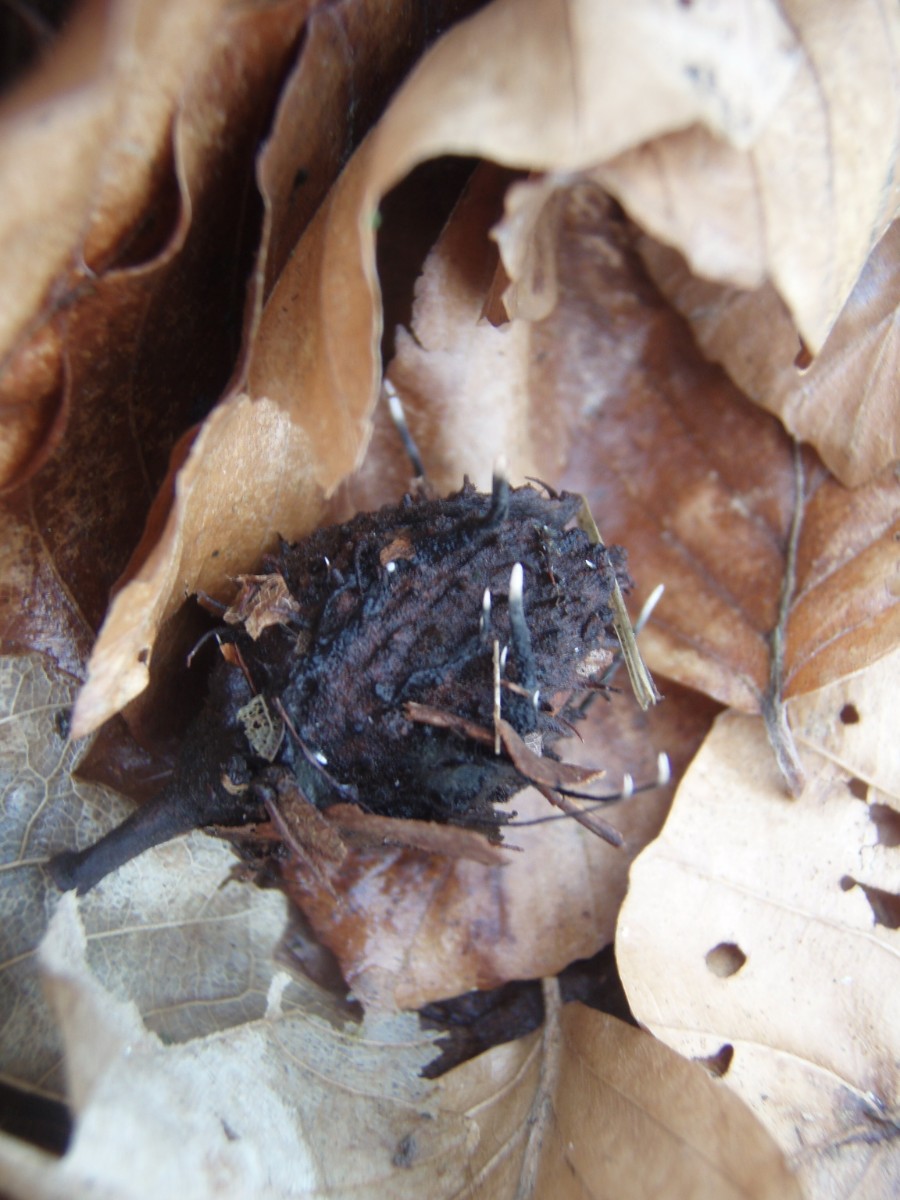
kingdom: Fungi
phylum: Ascomycota
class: Sordariomycetes
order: Xylariales
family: Xylariaceae
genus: Xylaria
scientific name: Xylaria carpophila
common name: bogskål-stødsvamp
